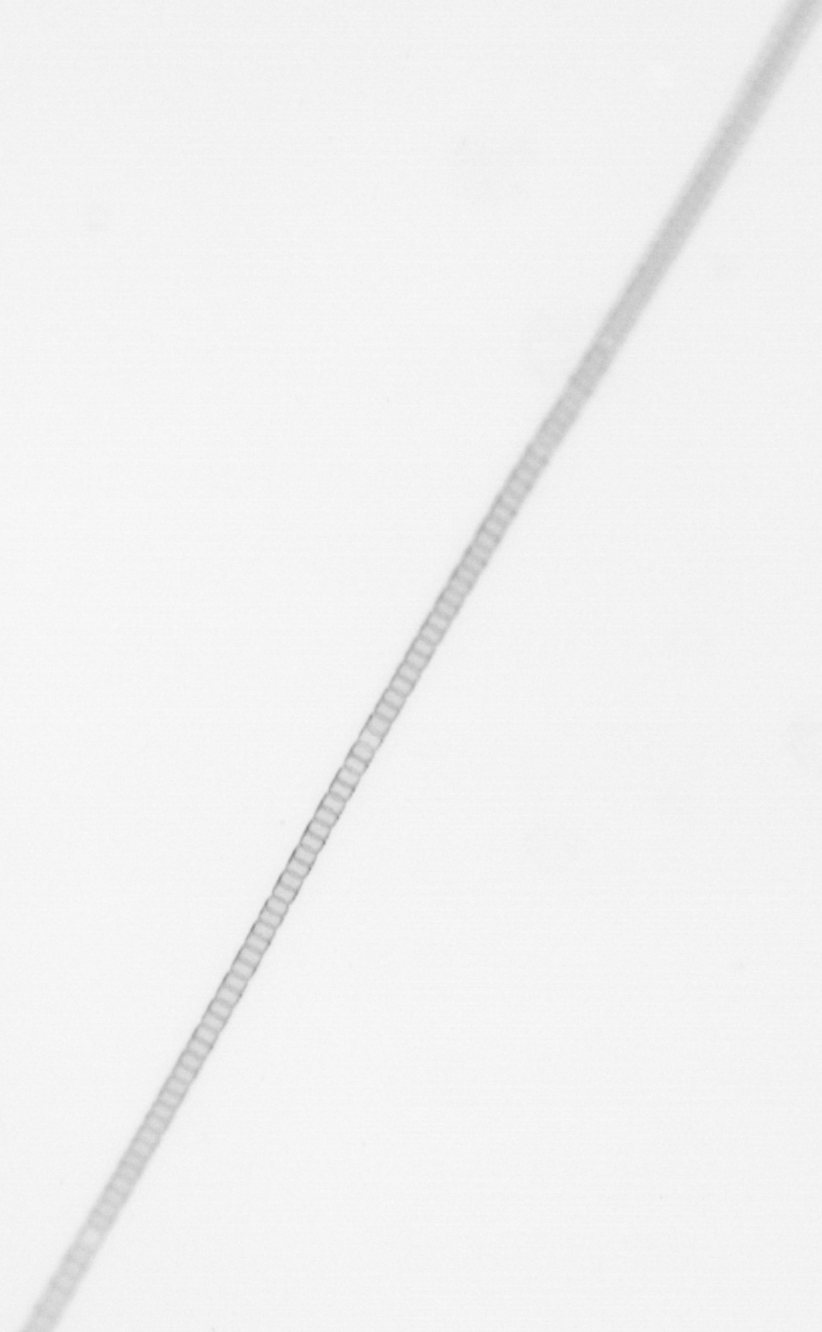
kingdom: Chromista
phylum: Ochrophyta
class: Bacillariophyceae
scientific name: Bacillariophyceae
